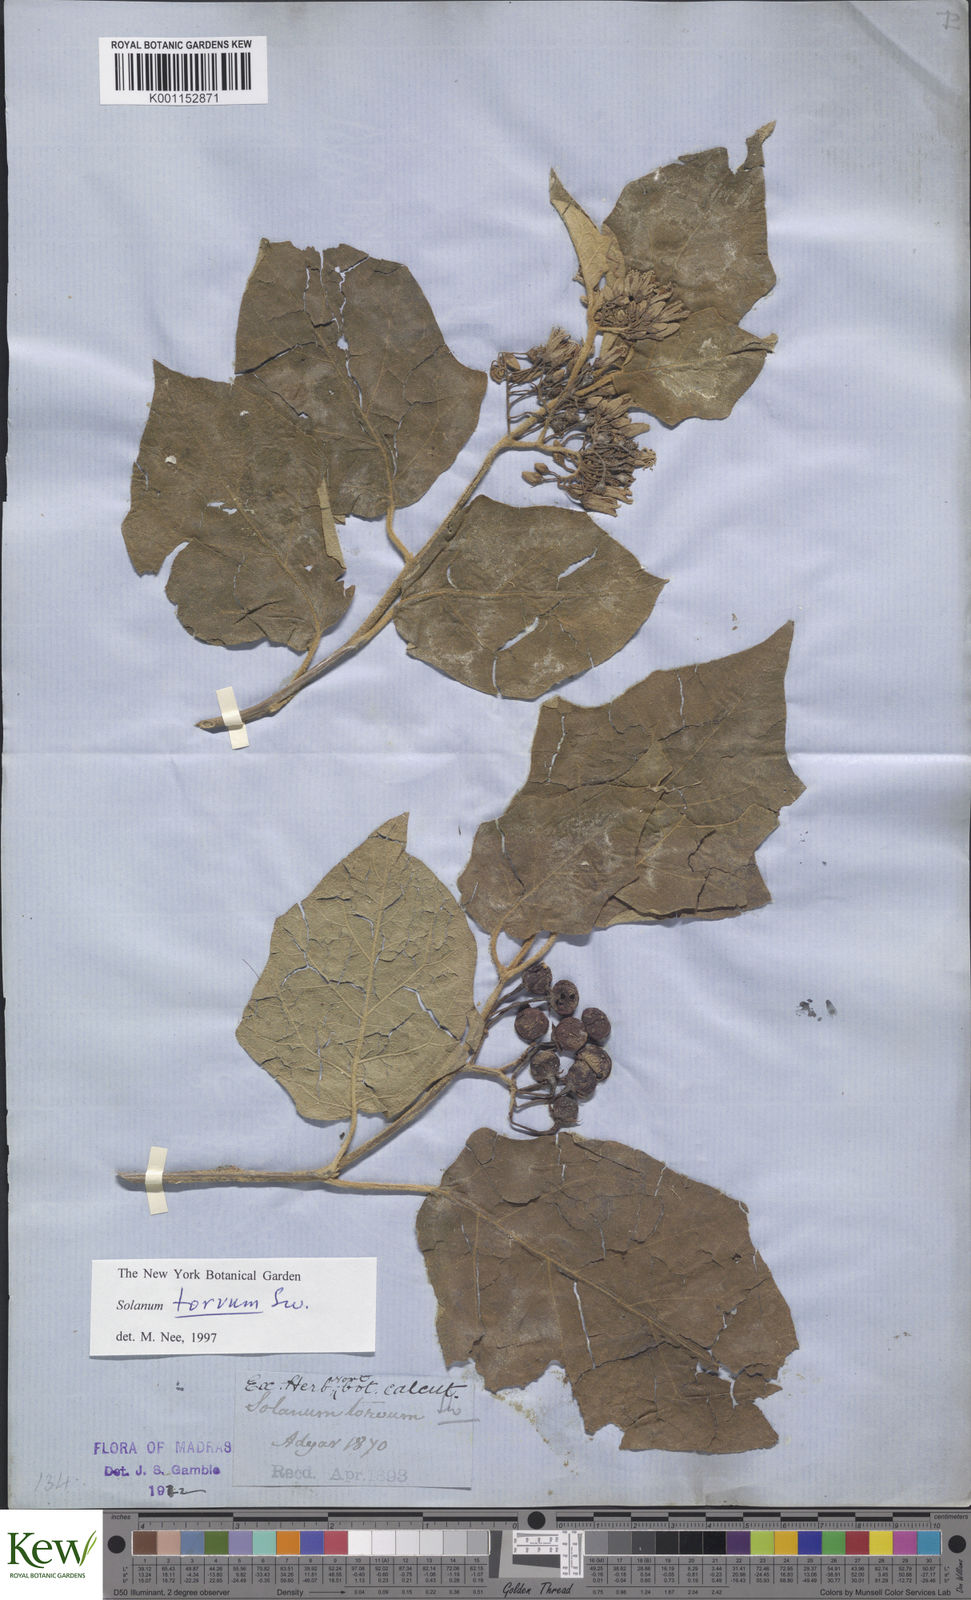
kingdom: Plantae
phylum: Tracheophyta
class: Magnoliopsida
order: Solanales
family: Solanaceae
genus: Solanum
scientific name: Solanum torvum
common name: Turkey berry
